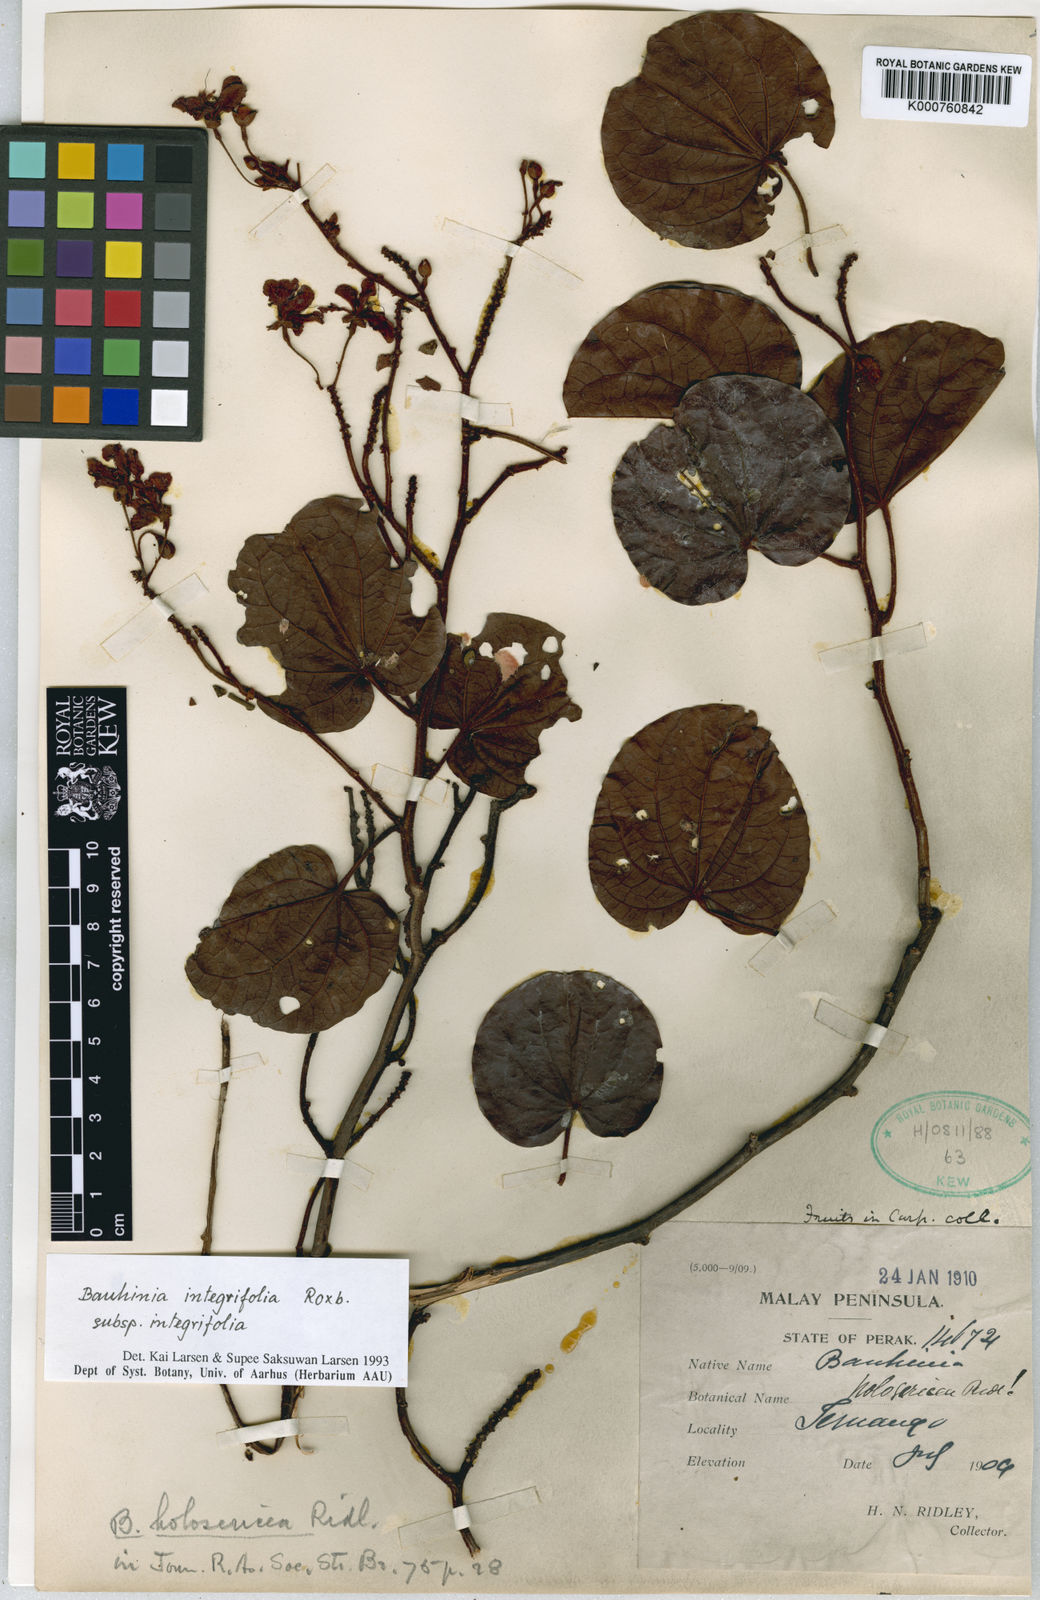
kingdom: Plantae
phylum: Tracheophyta
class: Magnoliopsida
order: Fabales
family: Fabaceae
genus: Phanera
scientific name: Phanera integrifolia
